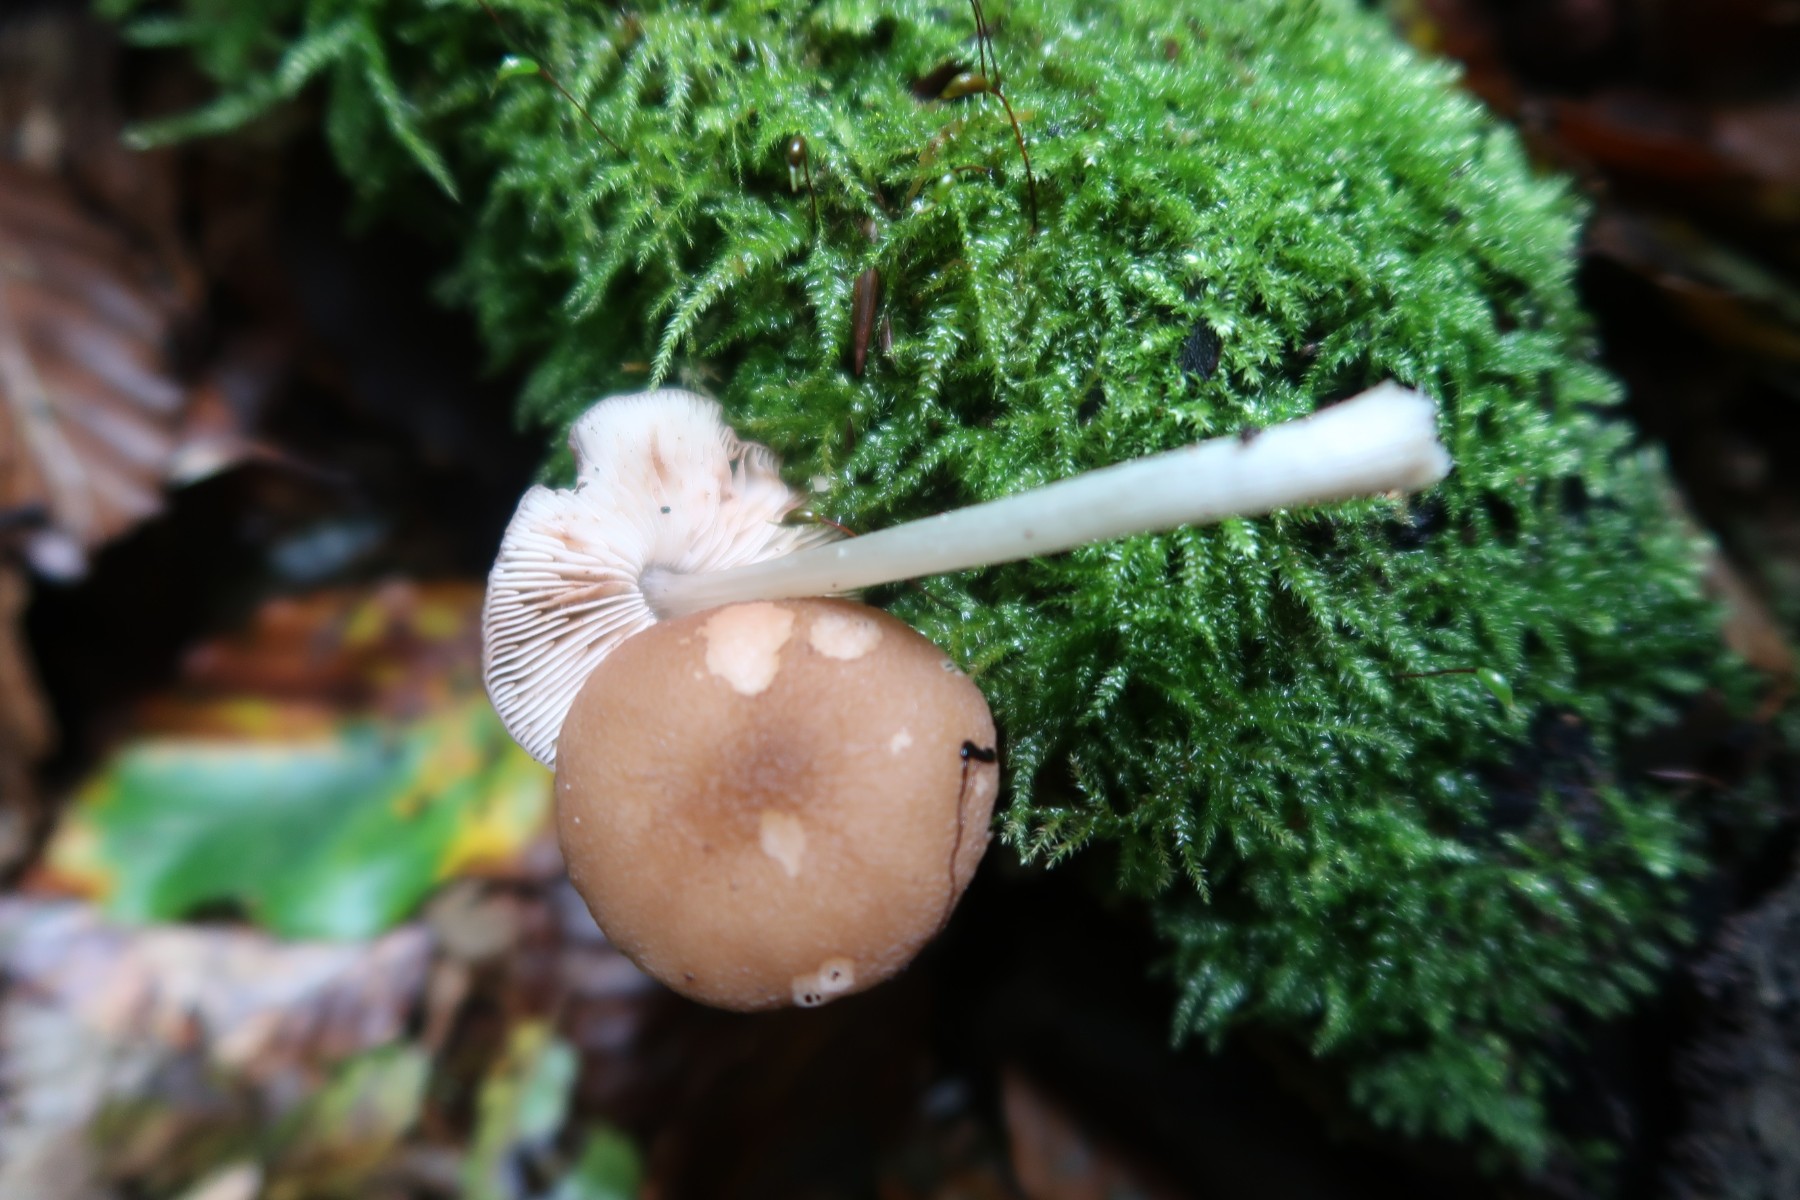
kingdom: Fungi
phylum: Basidiomycota
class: Agaricomycetes
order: Agaricales
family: Pluteaceae
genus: Pluteus
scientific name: Pluteus phlebophorus
